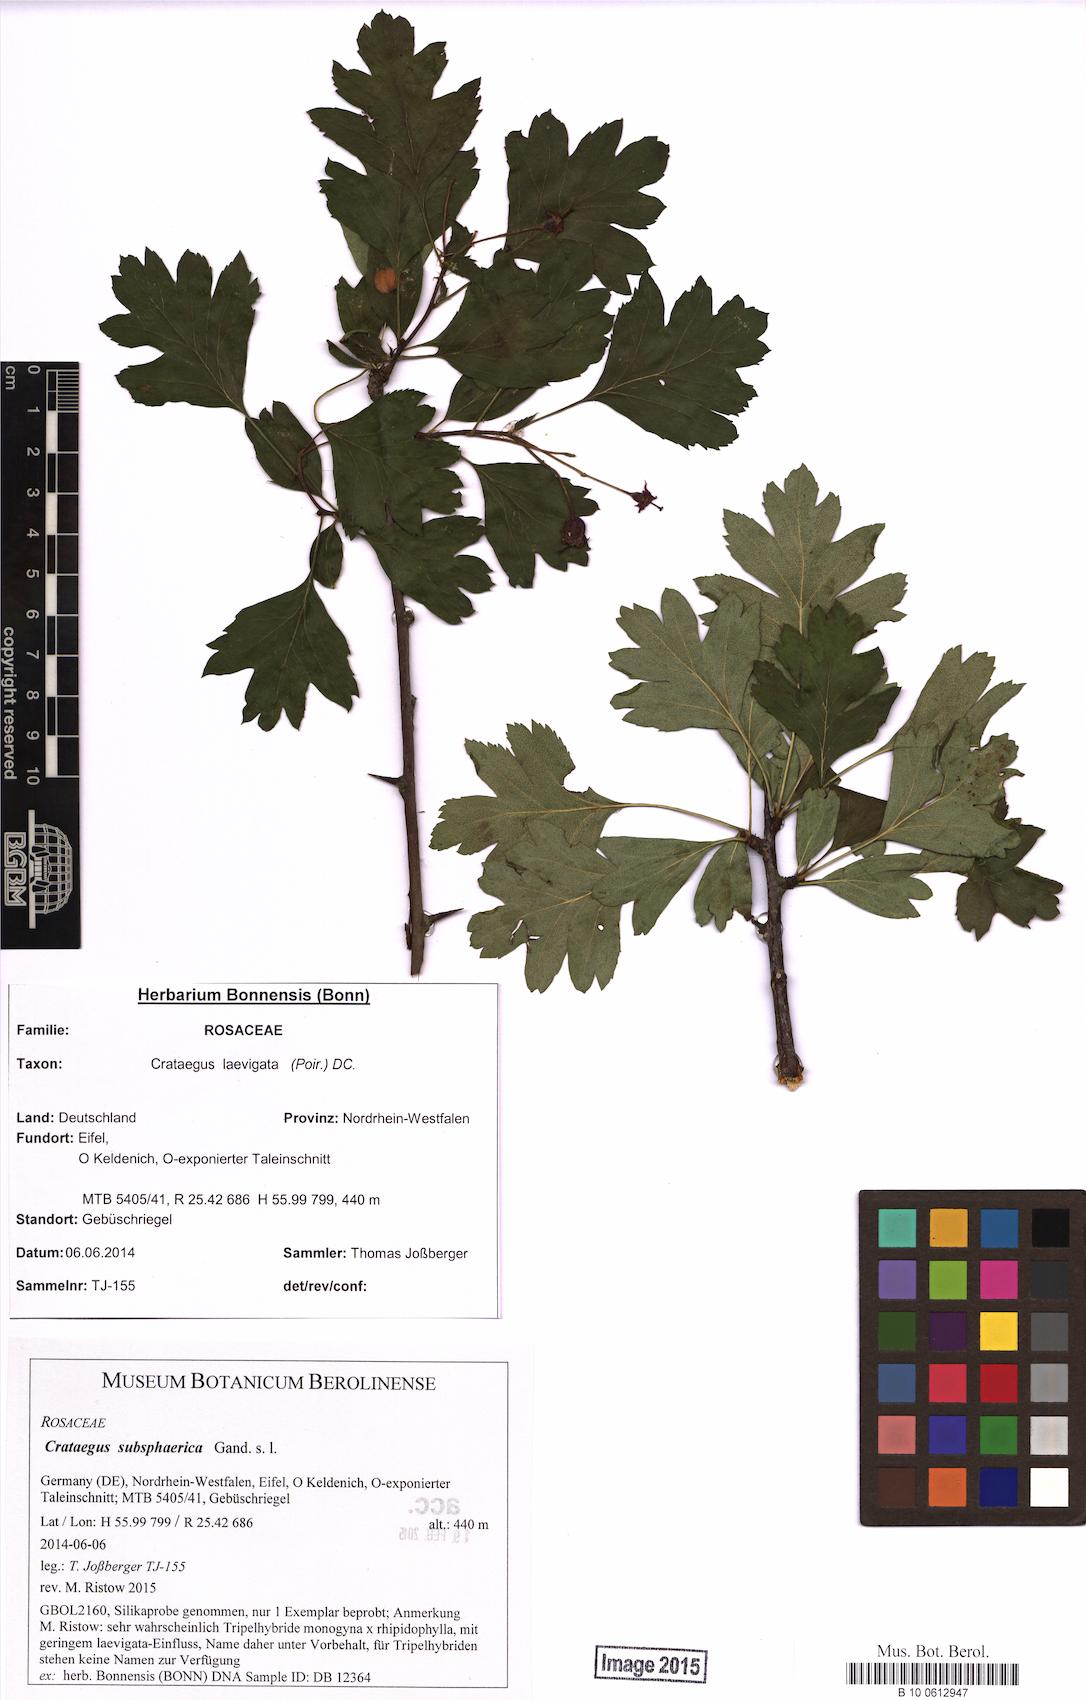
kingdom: Plantae
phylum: Tracheophyta
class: Magnoliopsida
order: Rosales
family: Rosaceae
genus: Crataegus
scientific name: Crataegus subsphaerica
